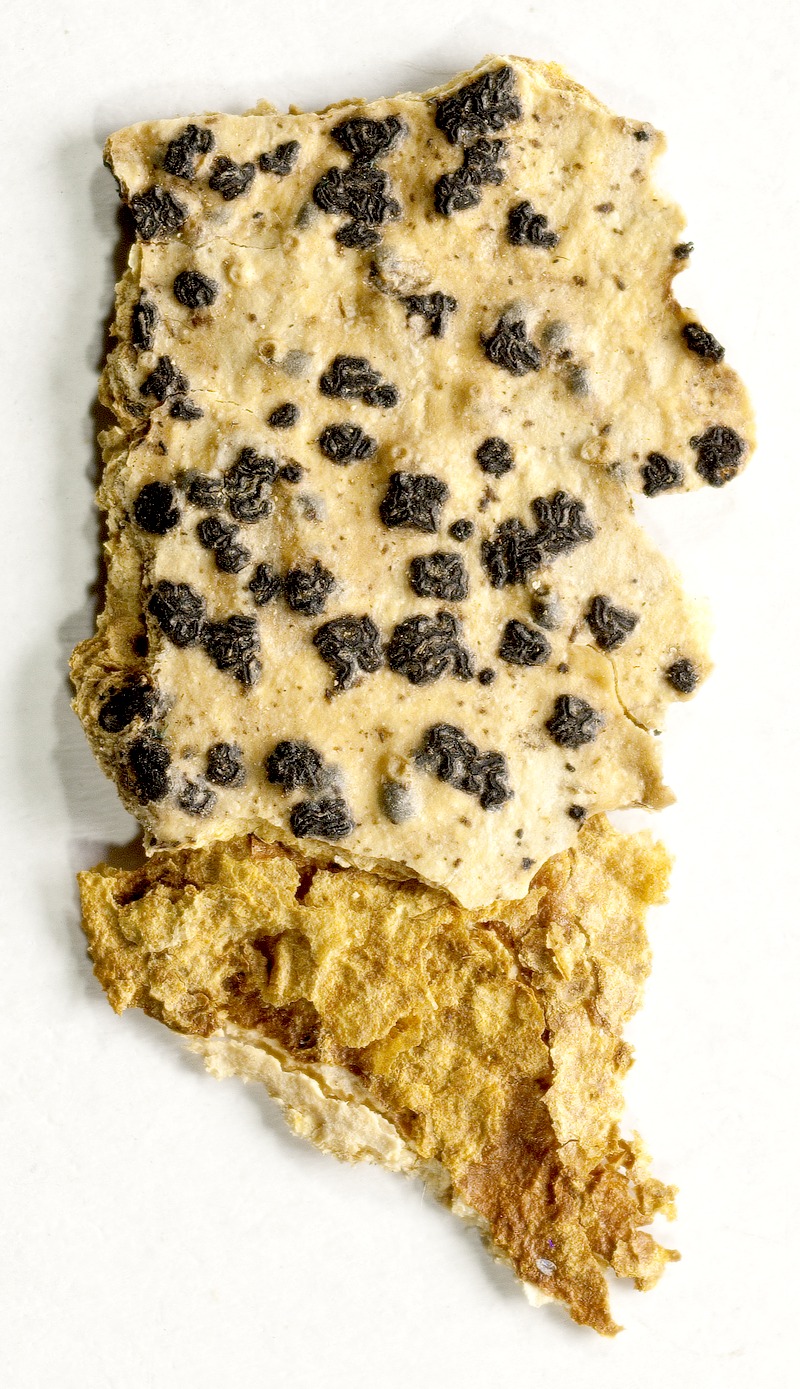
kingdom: Fungi
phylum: Ascomycota
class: Arthoniomycetes
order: Arthoniales
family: Opegraphaceae
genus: Opegrapha
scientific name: Opegrapha
